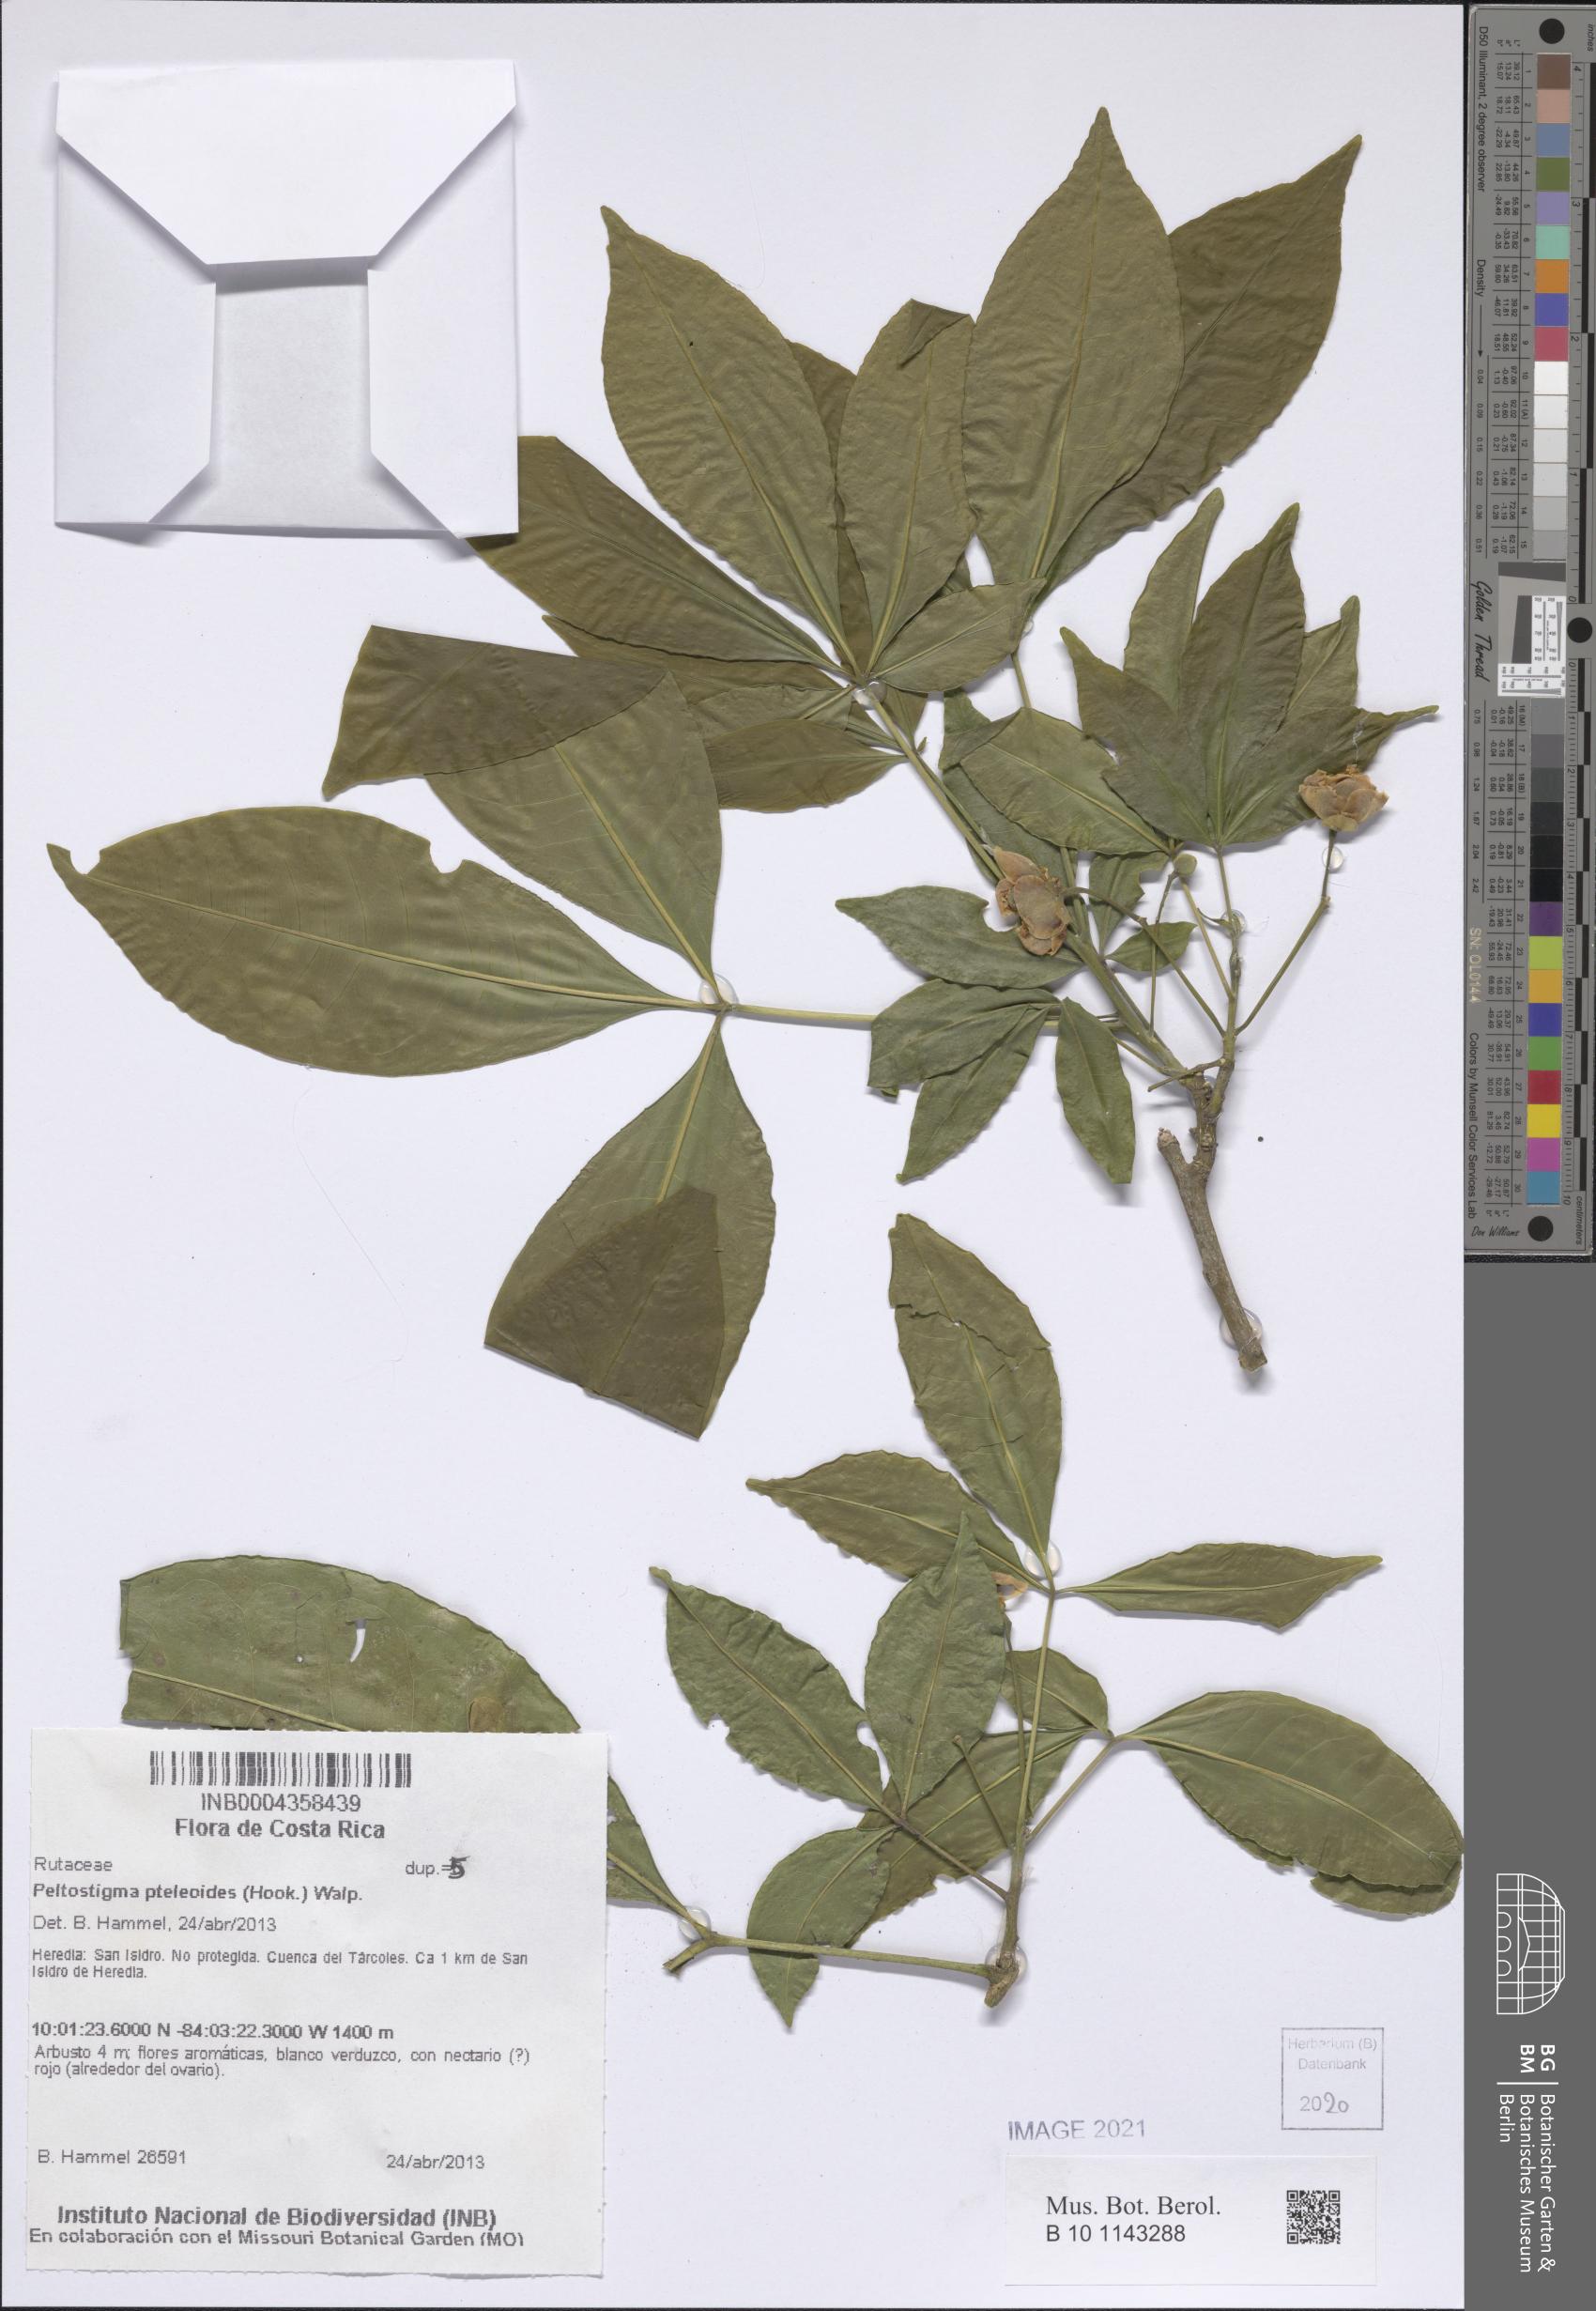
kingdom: Plantae
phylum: Tracheophyta
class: Magnoliopsida
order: Sapindales
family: Rutaceae
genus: Peltostigma
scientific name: Peltostigma pteleoides
